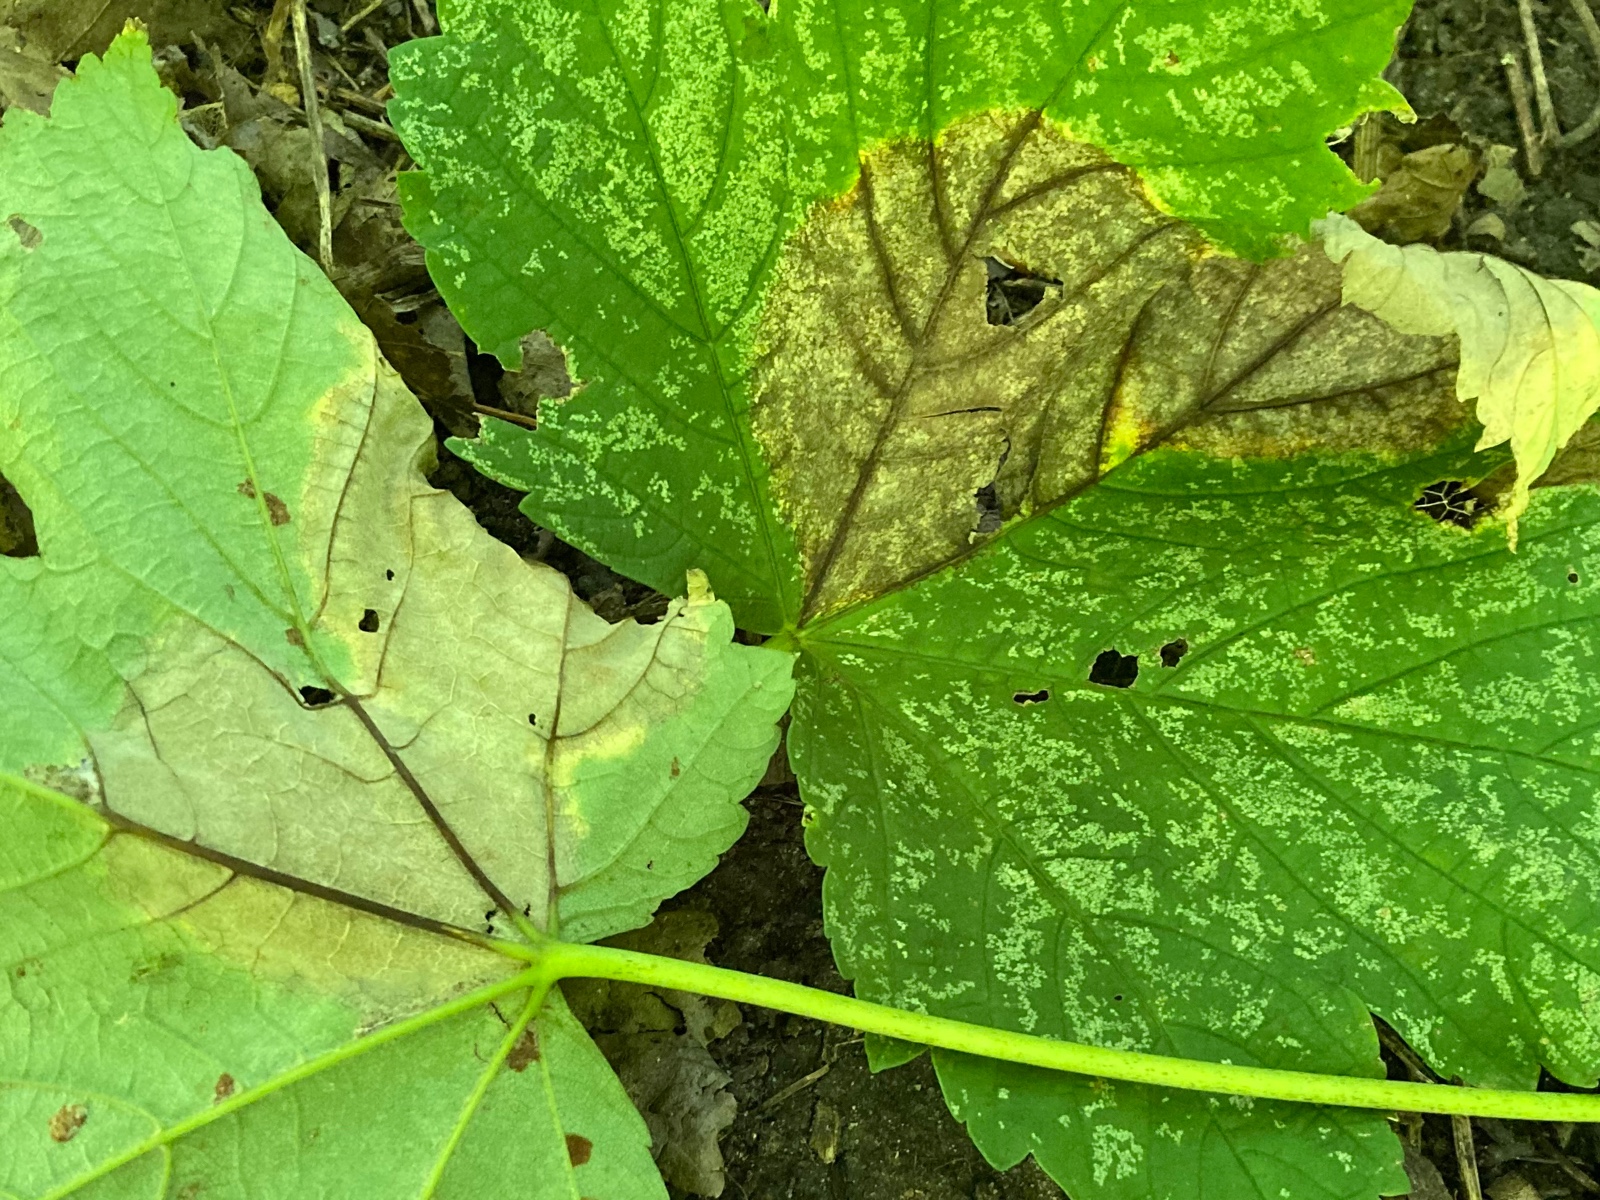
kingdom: Fungi
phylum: Ascomycota
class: Sordariomycetes
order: Diaporthales
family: Gnomoniaceae
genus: Pleuroceras
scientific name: Pleuroceras pseudoplatani
